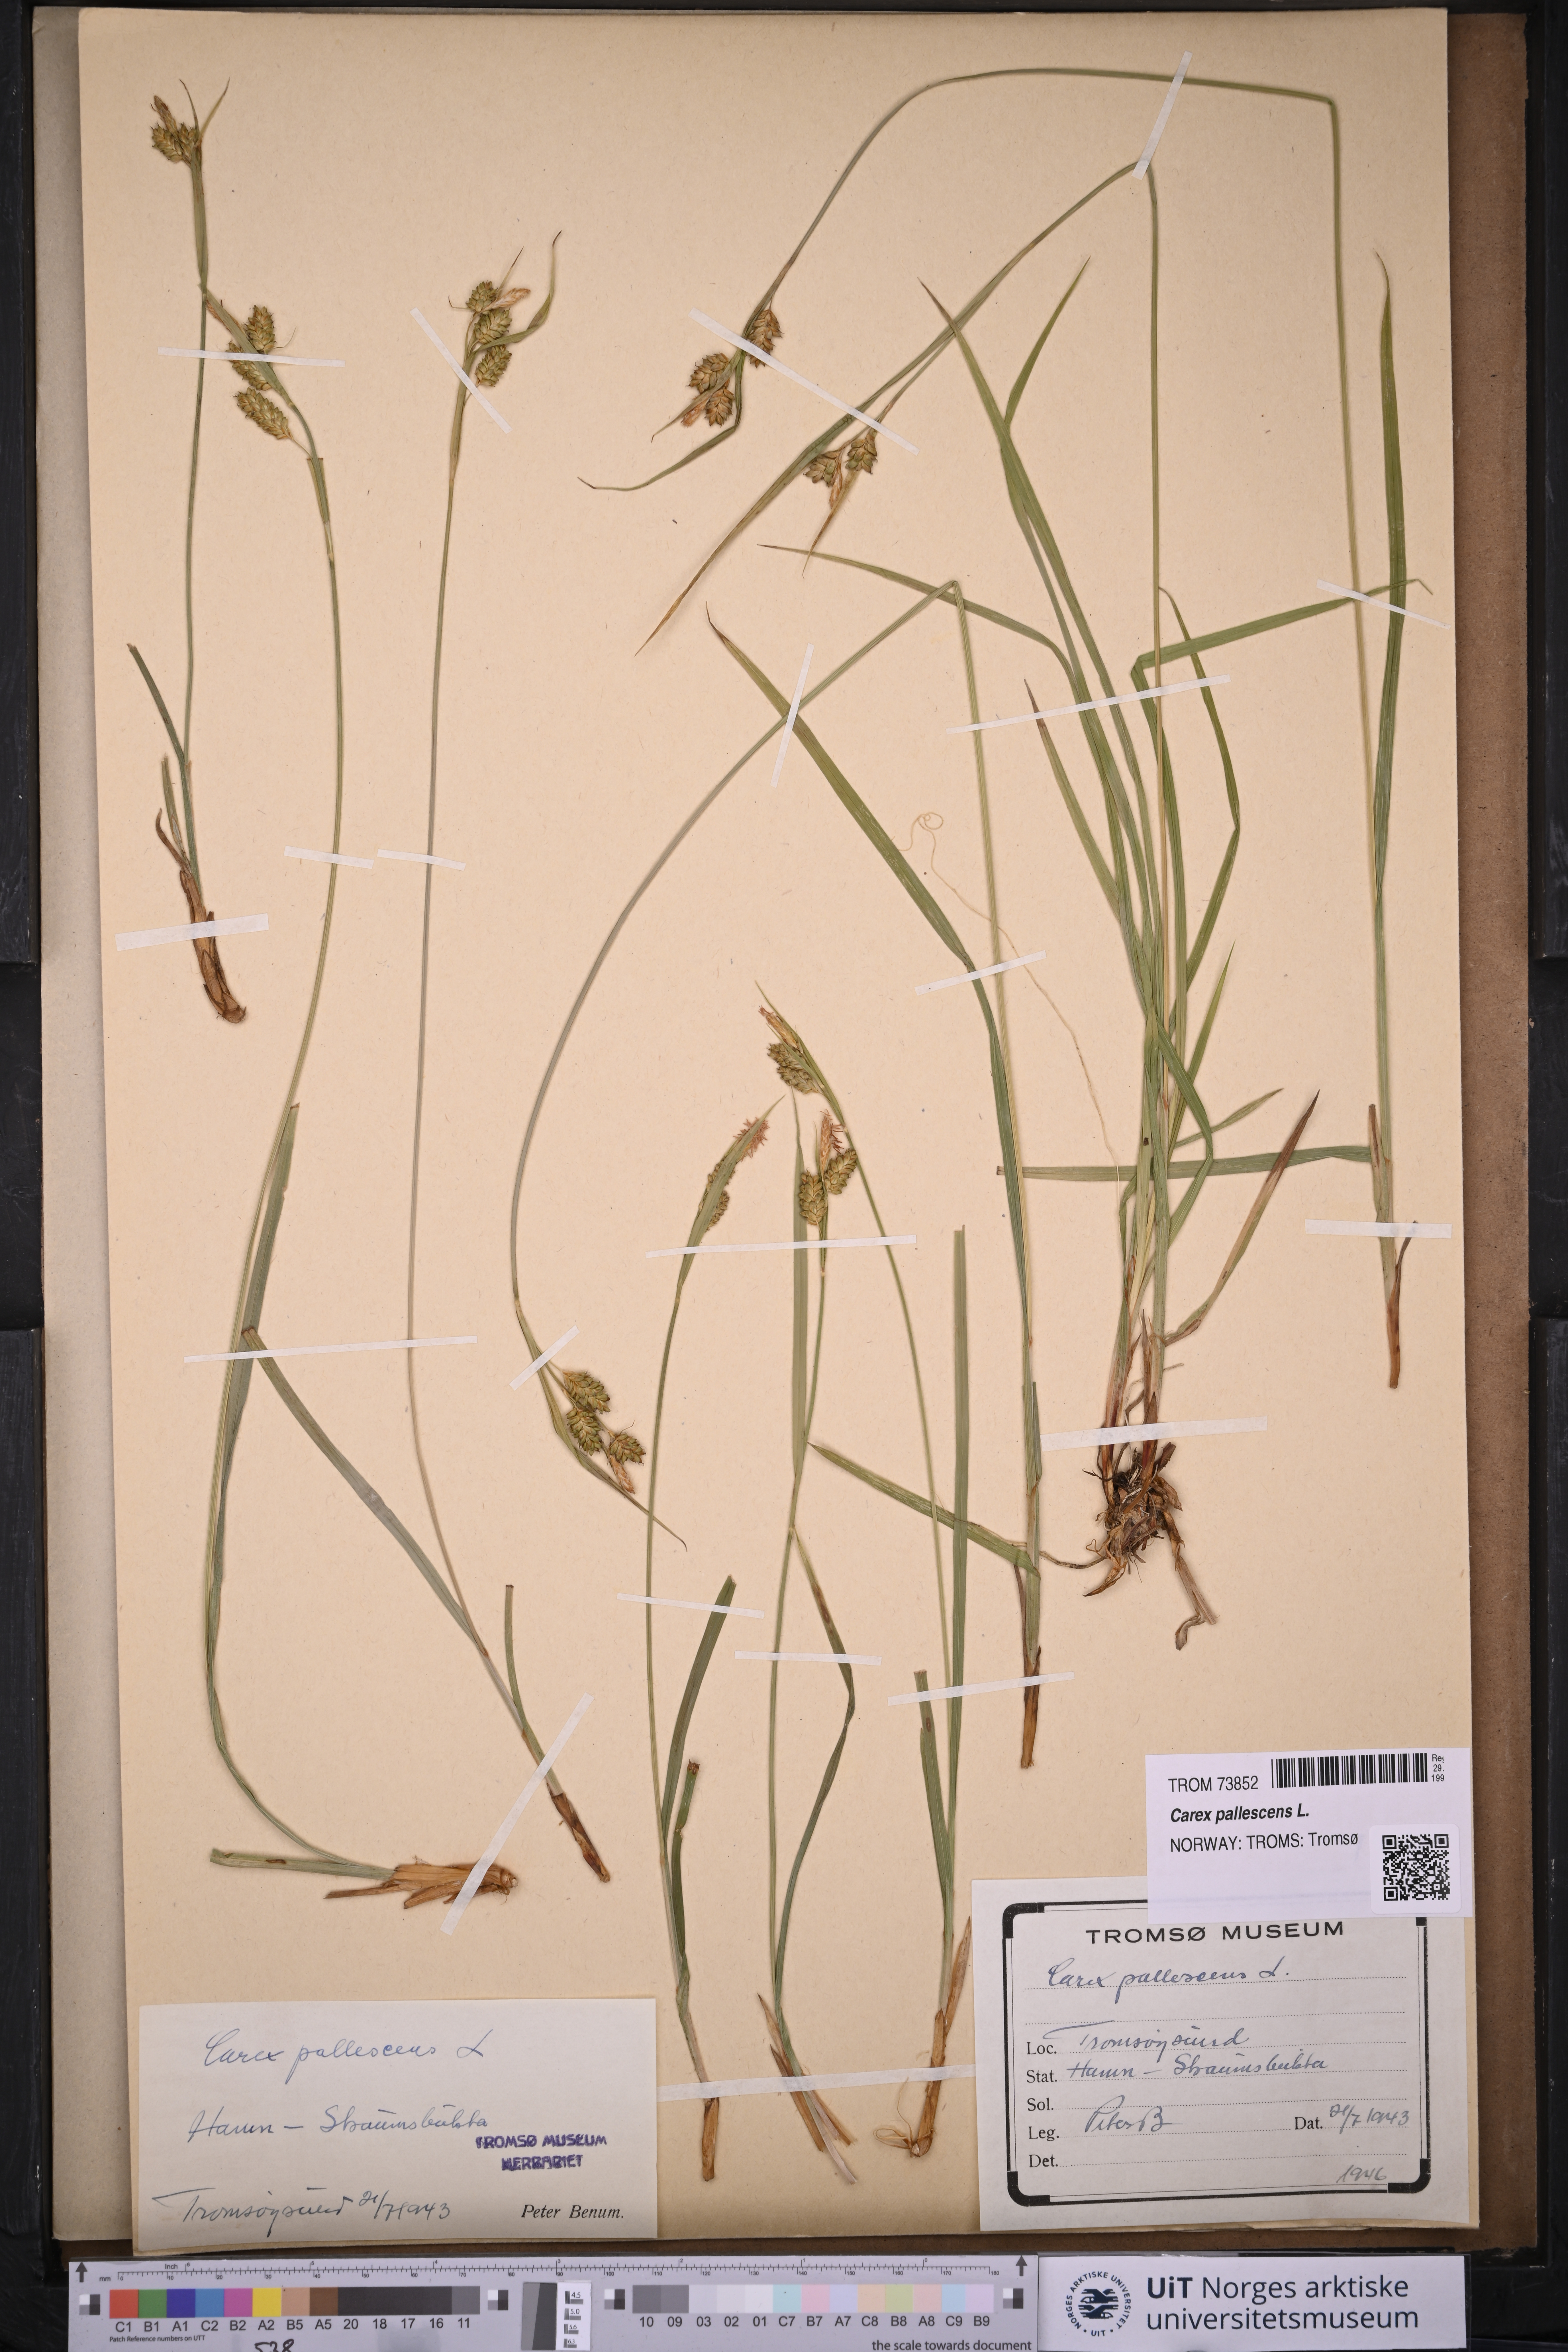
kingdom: Plantae
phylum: Tracheophyta
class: Liliopsida
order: Poales
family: Cyperaceae
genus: Carex
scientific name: Carex pallescens
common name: Pale sedge
